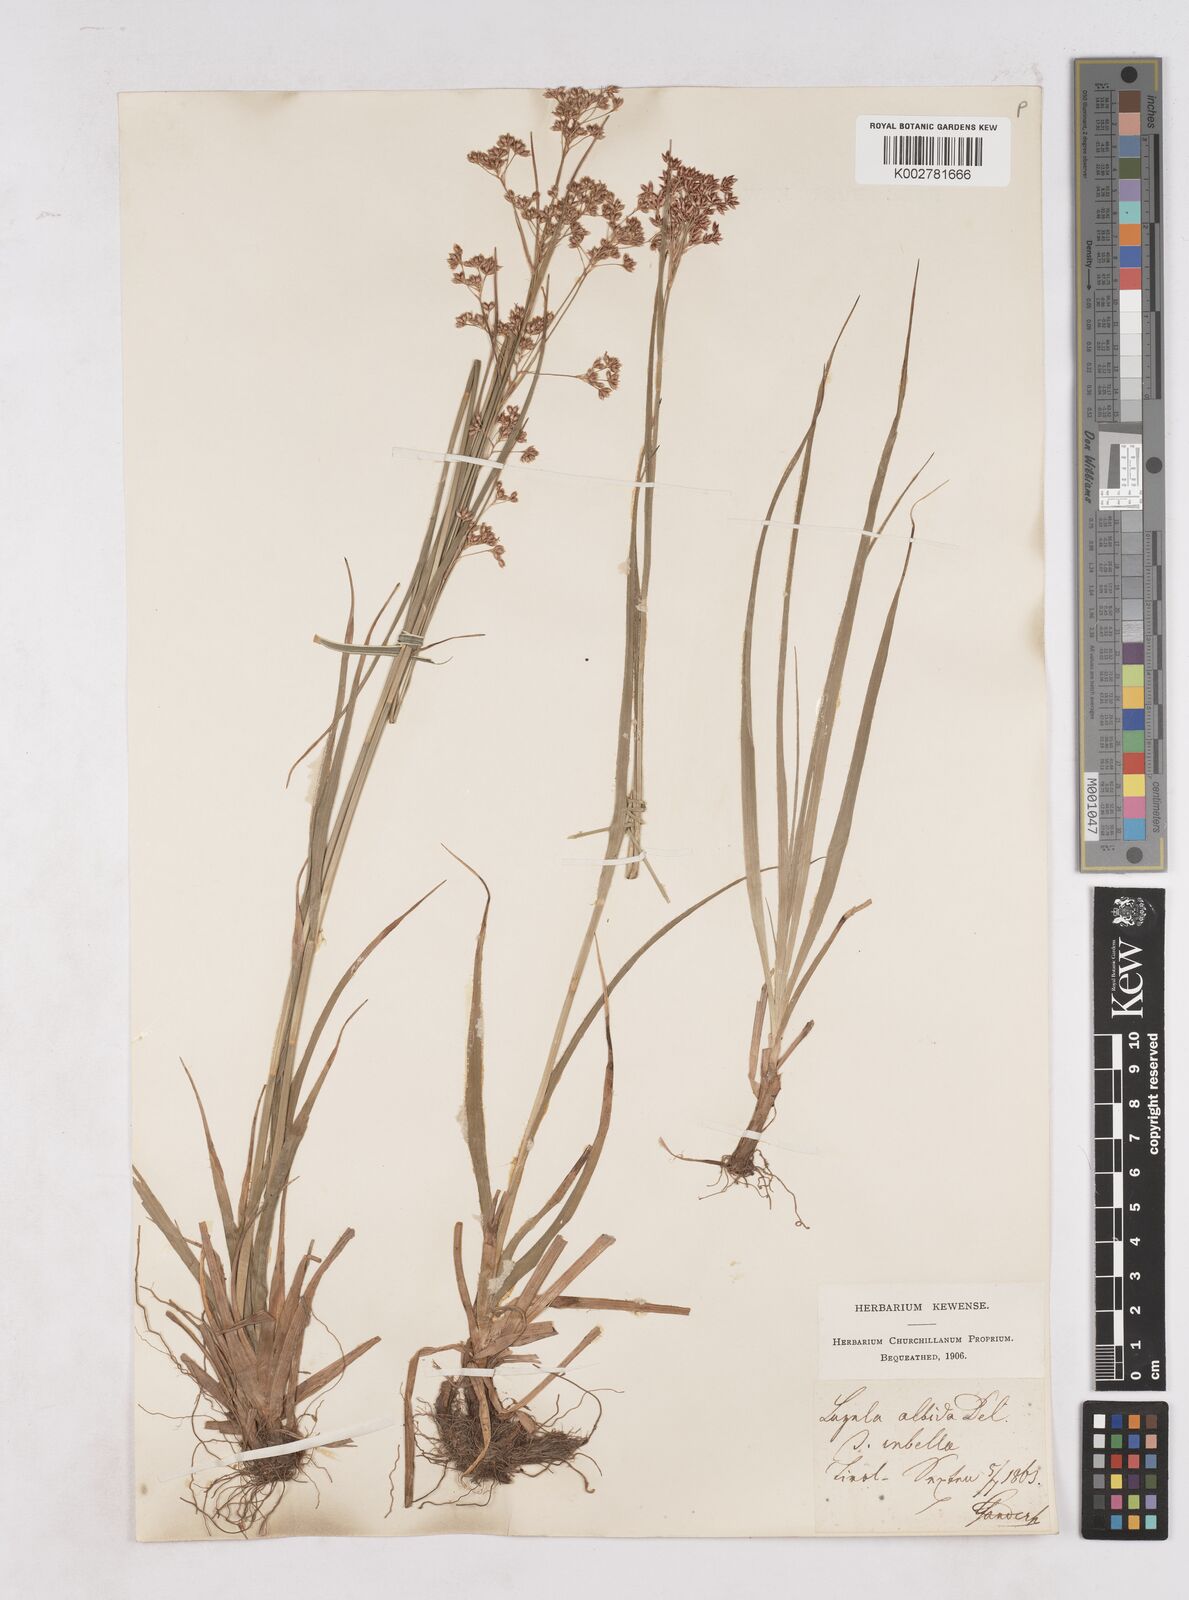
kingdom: Plantae
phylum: Tracheophyta
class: Liliopsida
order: Poales
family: Juncaceae
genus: Luzula
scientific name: Luzula luzuloides
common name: White wood-rush
